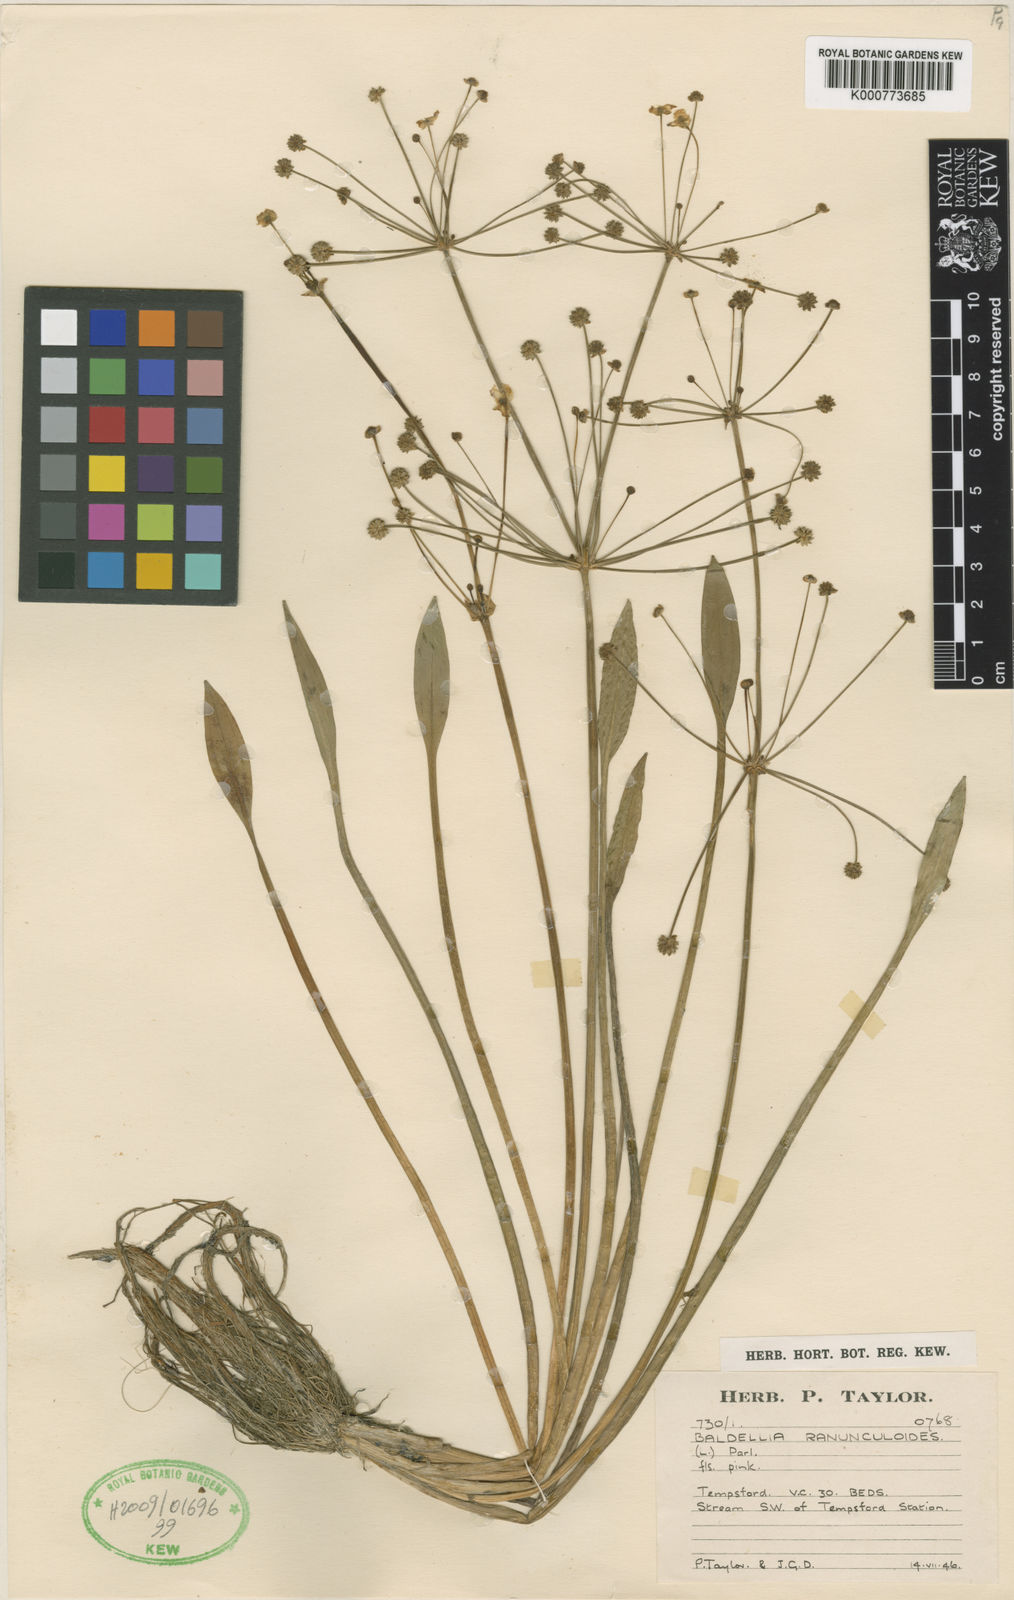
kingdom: Plantae
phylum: Tracheophyta
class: Liliopsida
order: Alismatales
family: Alismataceae
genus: Baldellia
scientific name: Baldellia ranunculoides
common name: Lesser water-plantain
